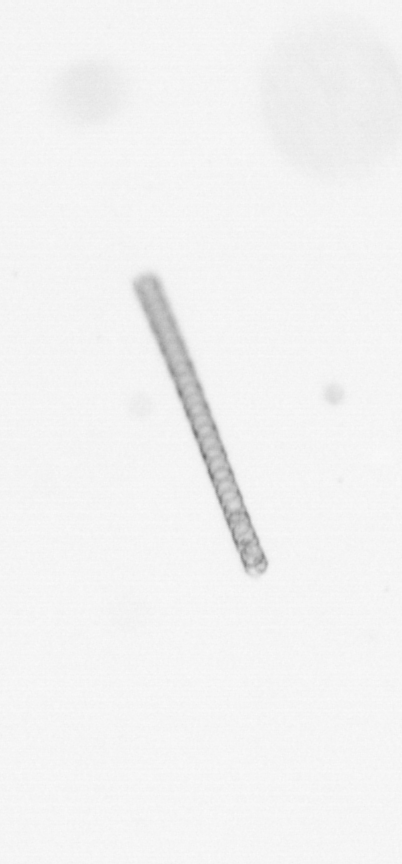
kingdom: Chromista
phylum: Ochrophyta
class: Bacillariophyceae
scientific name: Bacillariophyceae
